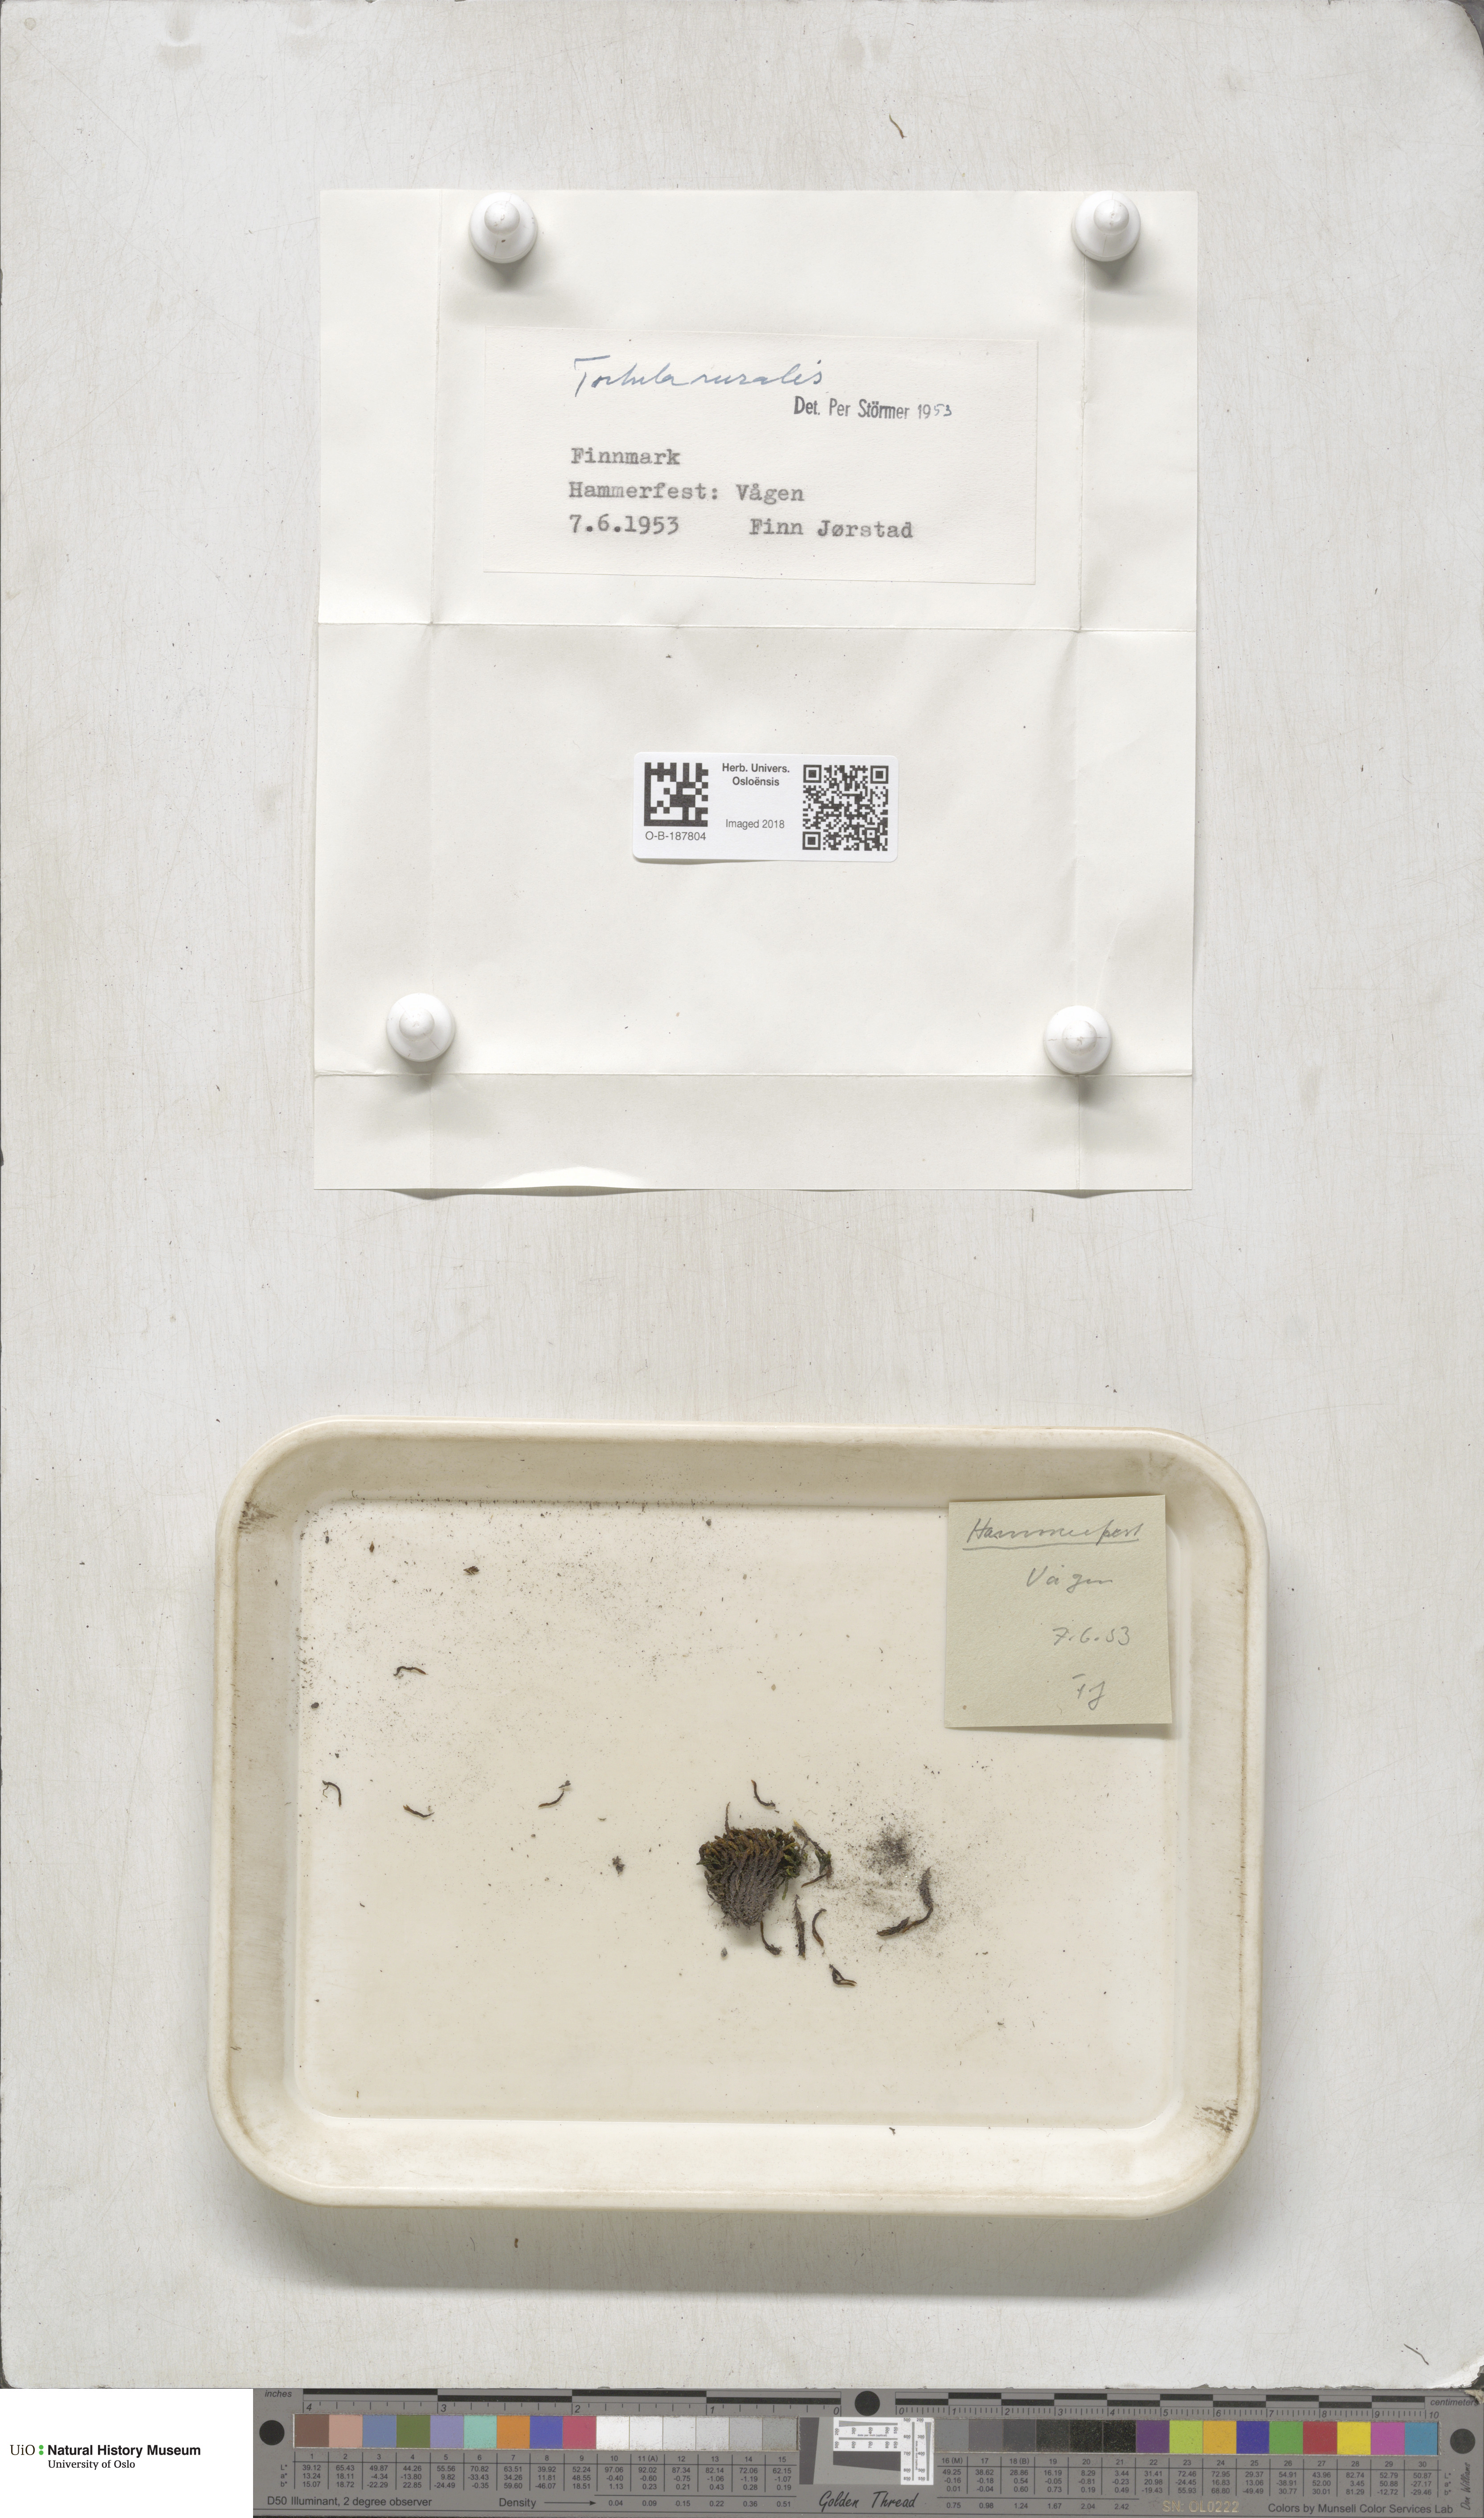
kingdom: Plantae
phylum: Bryophyta
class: Bryopsida
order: Pottiales
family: Pottiaceae
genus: Syntrichia
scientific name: Syntrichia ruralis
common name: Sidewalk screw moss
